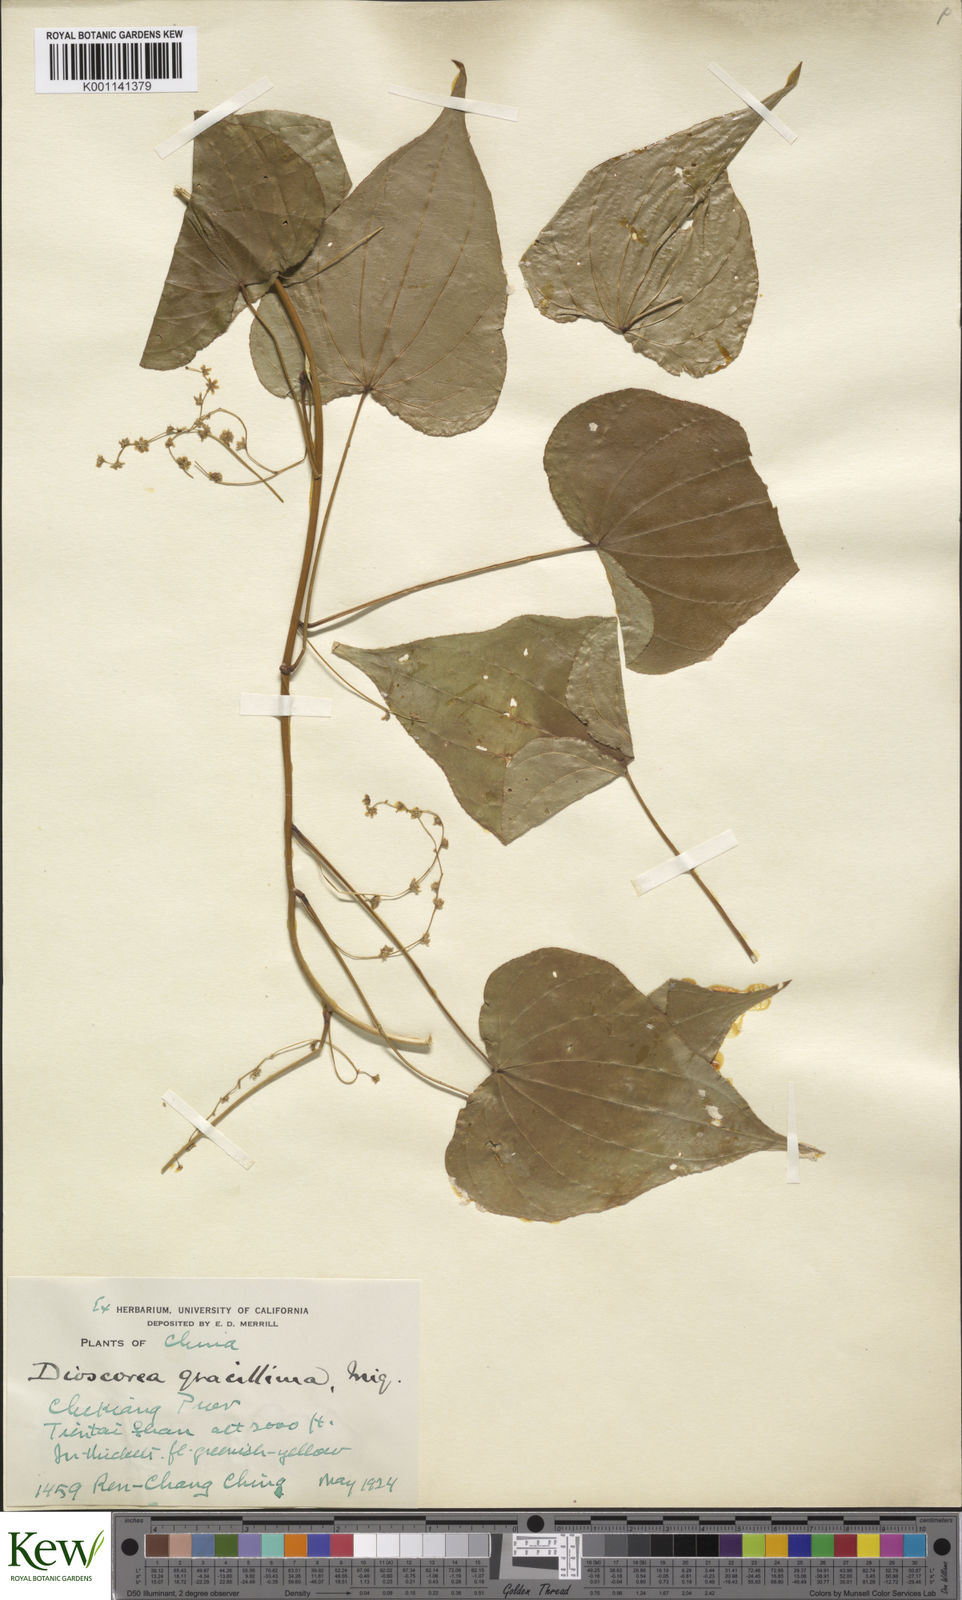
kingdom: Plantae
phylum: Tracheophyta
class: Liliopsida
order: Dioscoreales
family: Dioscoreaceae
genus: Dioscorea
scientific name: Dioscorea gracillima
